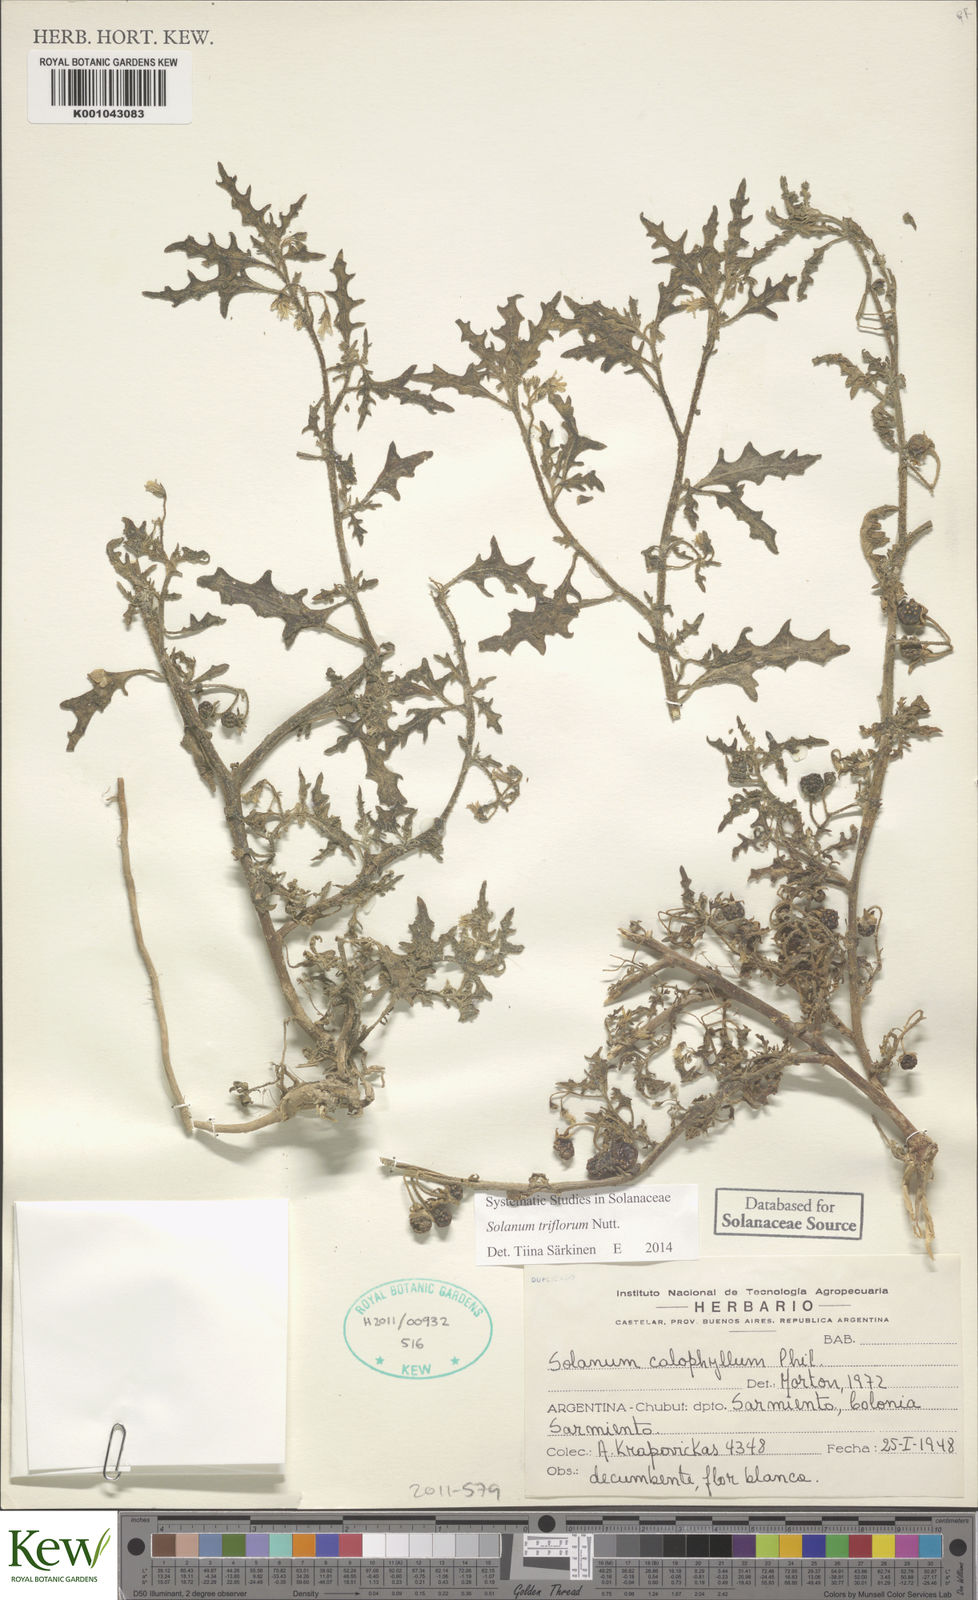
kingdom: Plantae
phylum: Tracheophyta
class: Magnoliopsida
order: Solanales
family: Solanaceae
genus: Solanum
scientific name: Solanum triflorum
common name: Small nightshade
